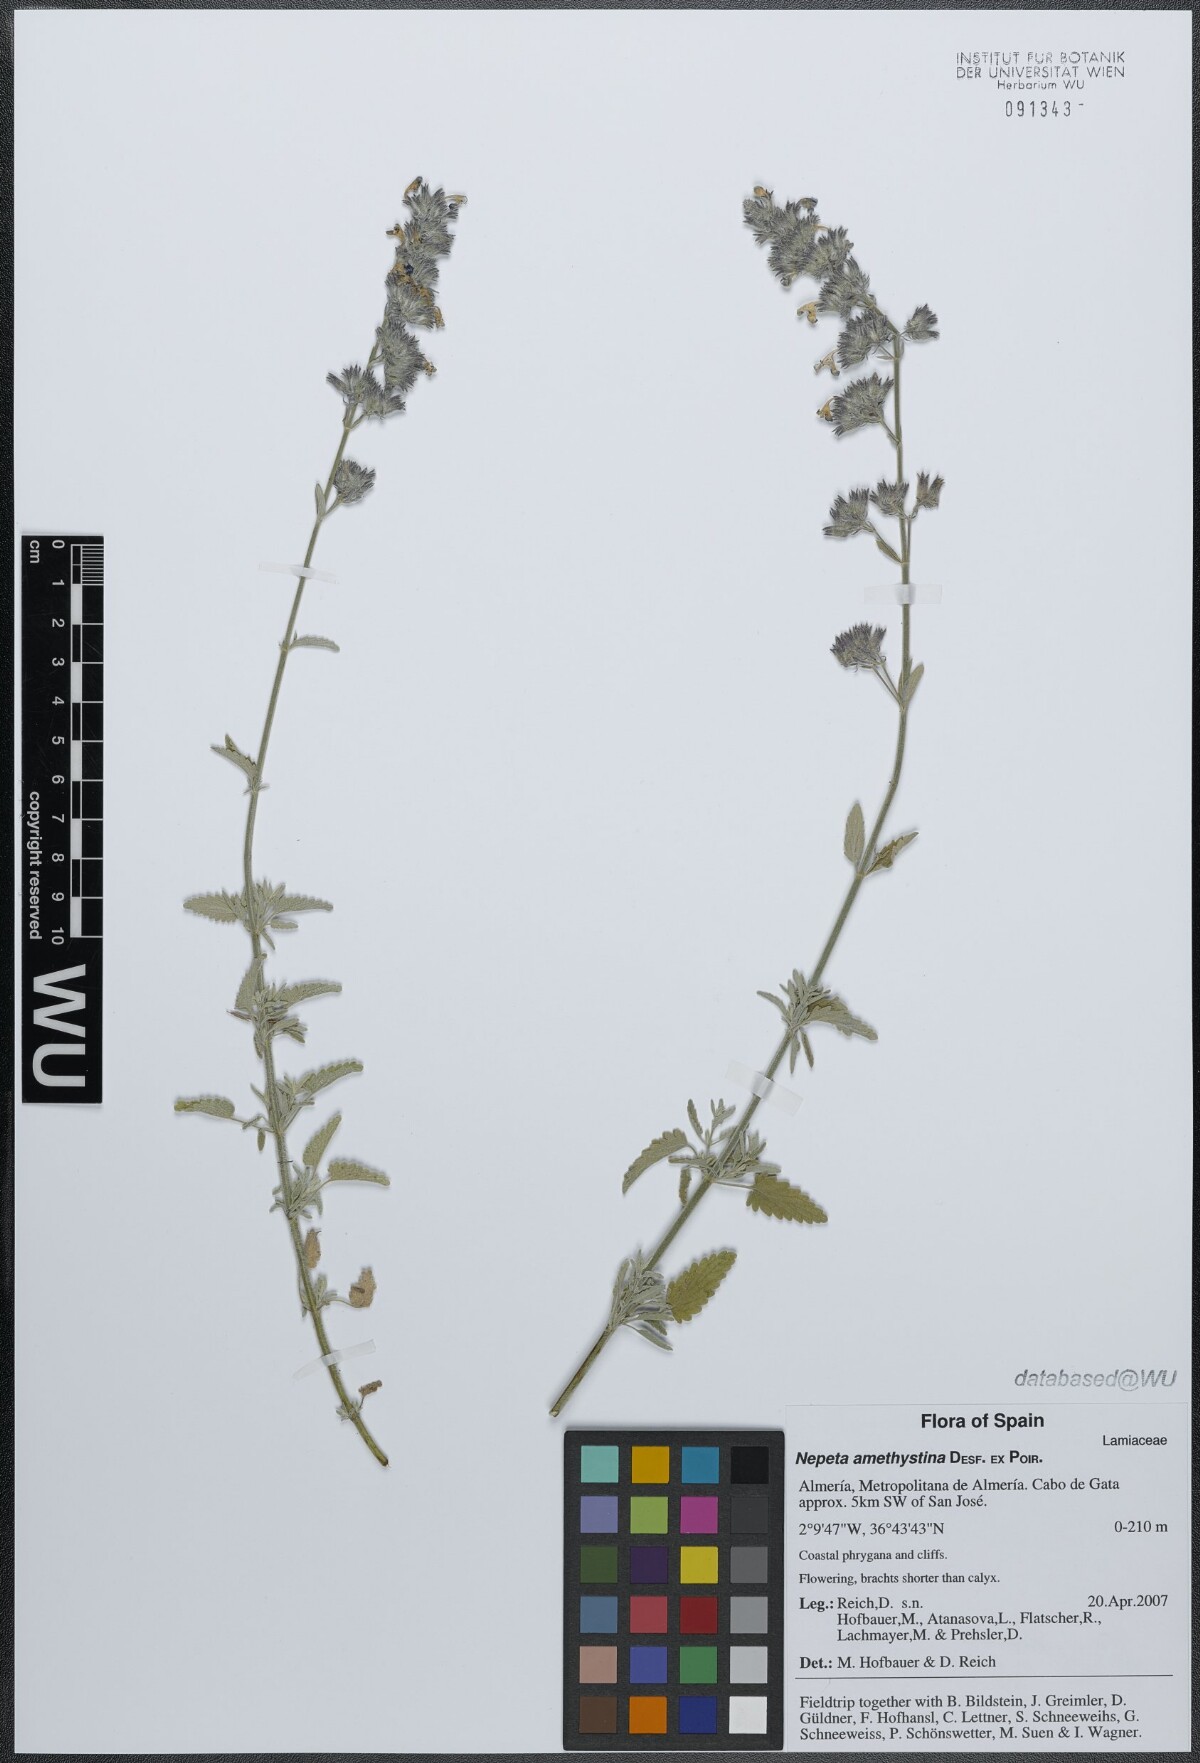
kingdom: Plantae
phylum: Tracheophyta
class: Magnoliopsida
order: Lamiales
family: Lamiaceae
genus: Nepeta
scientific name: Nepeta nepetella
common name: Lesser catmint
